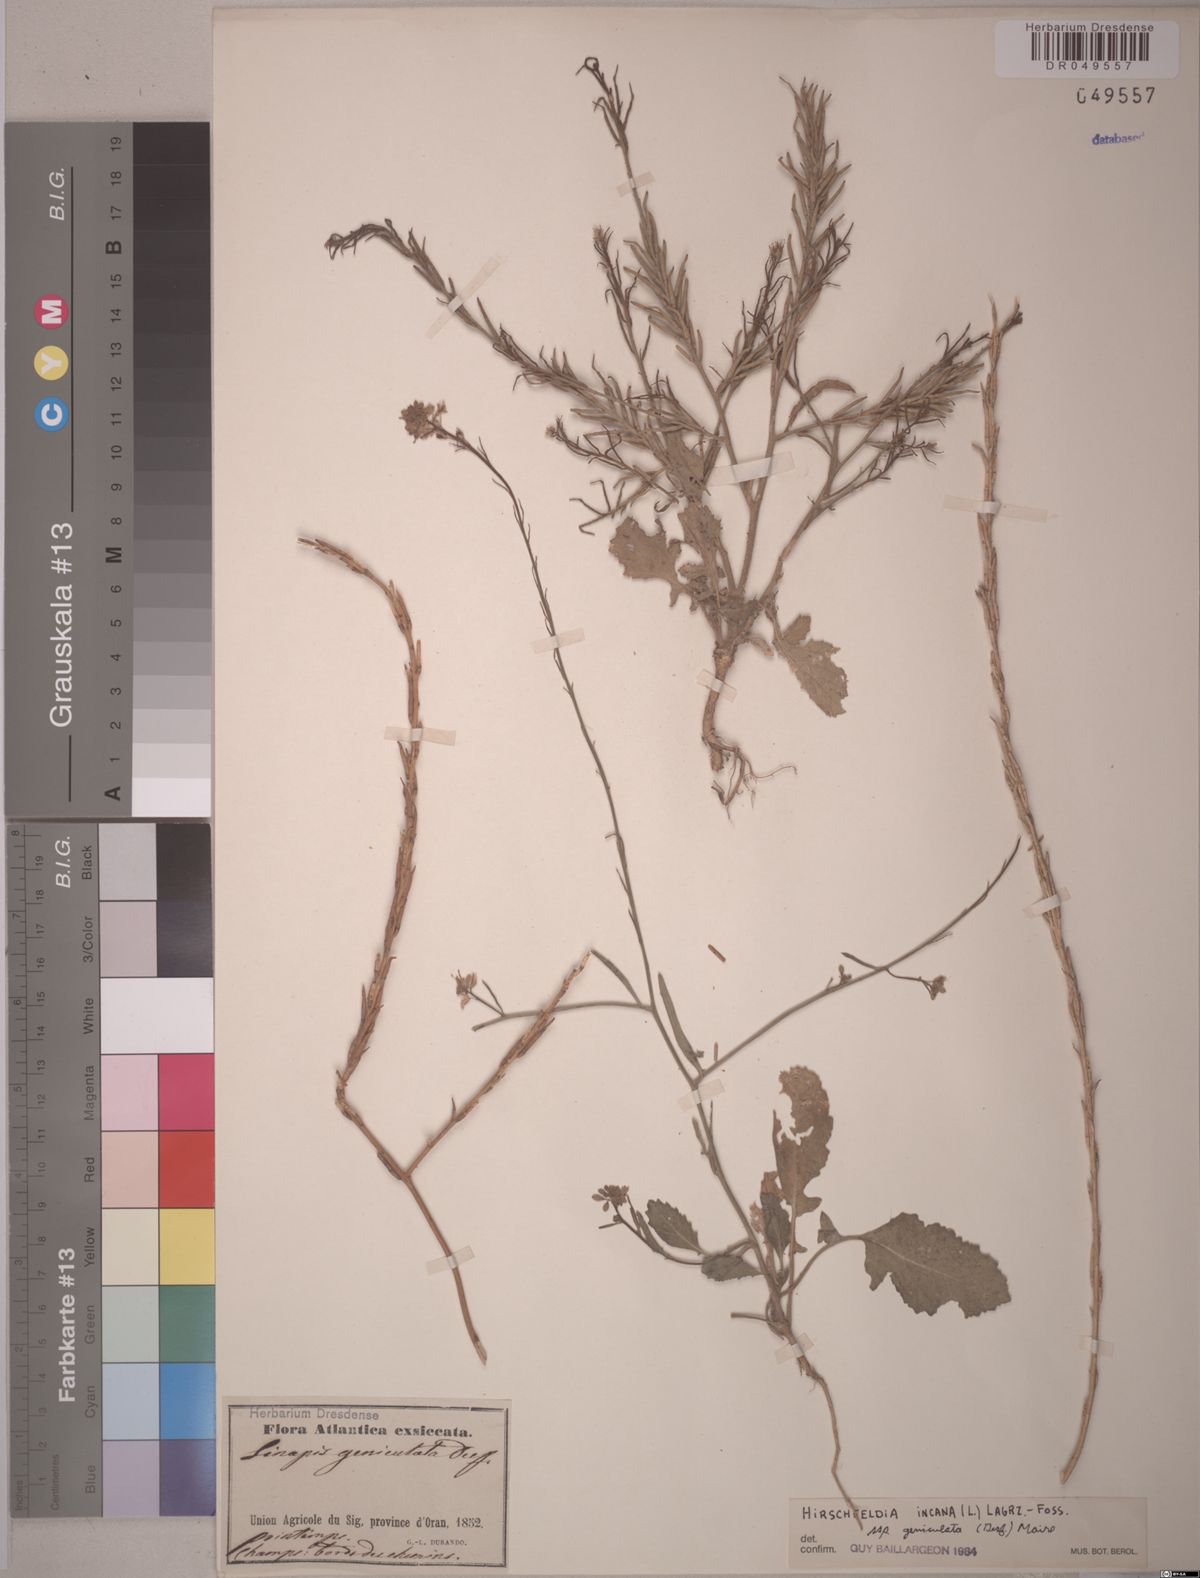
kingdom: Plantae
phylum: Tracheophyta
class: Magnoliopsida
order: Brassicales
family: Brassicaceae
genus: Hirschfeldia
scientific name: Hirschfeldia incana
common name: Hoary mustard
